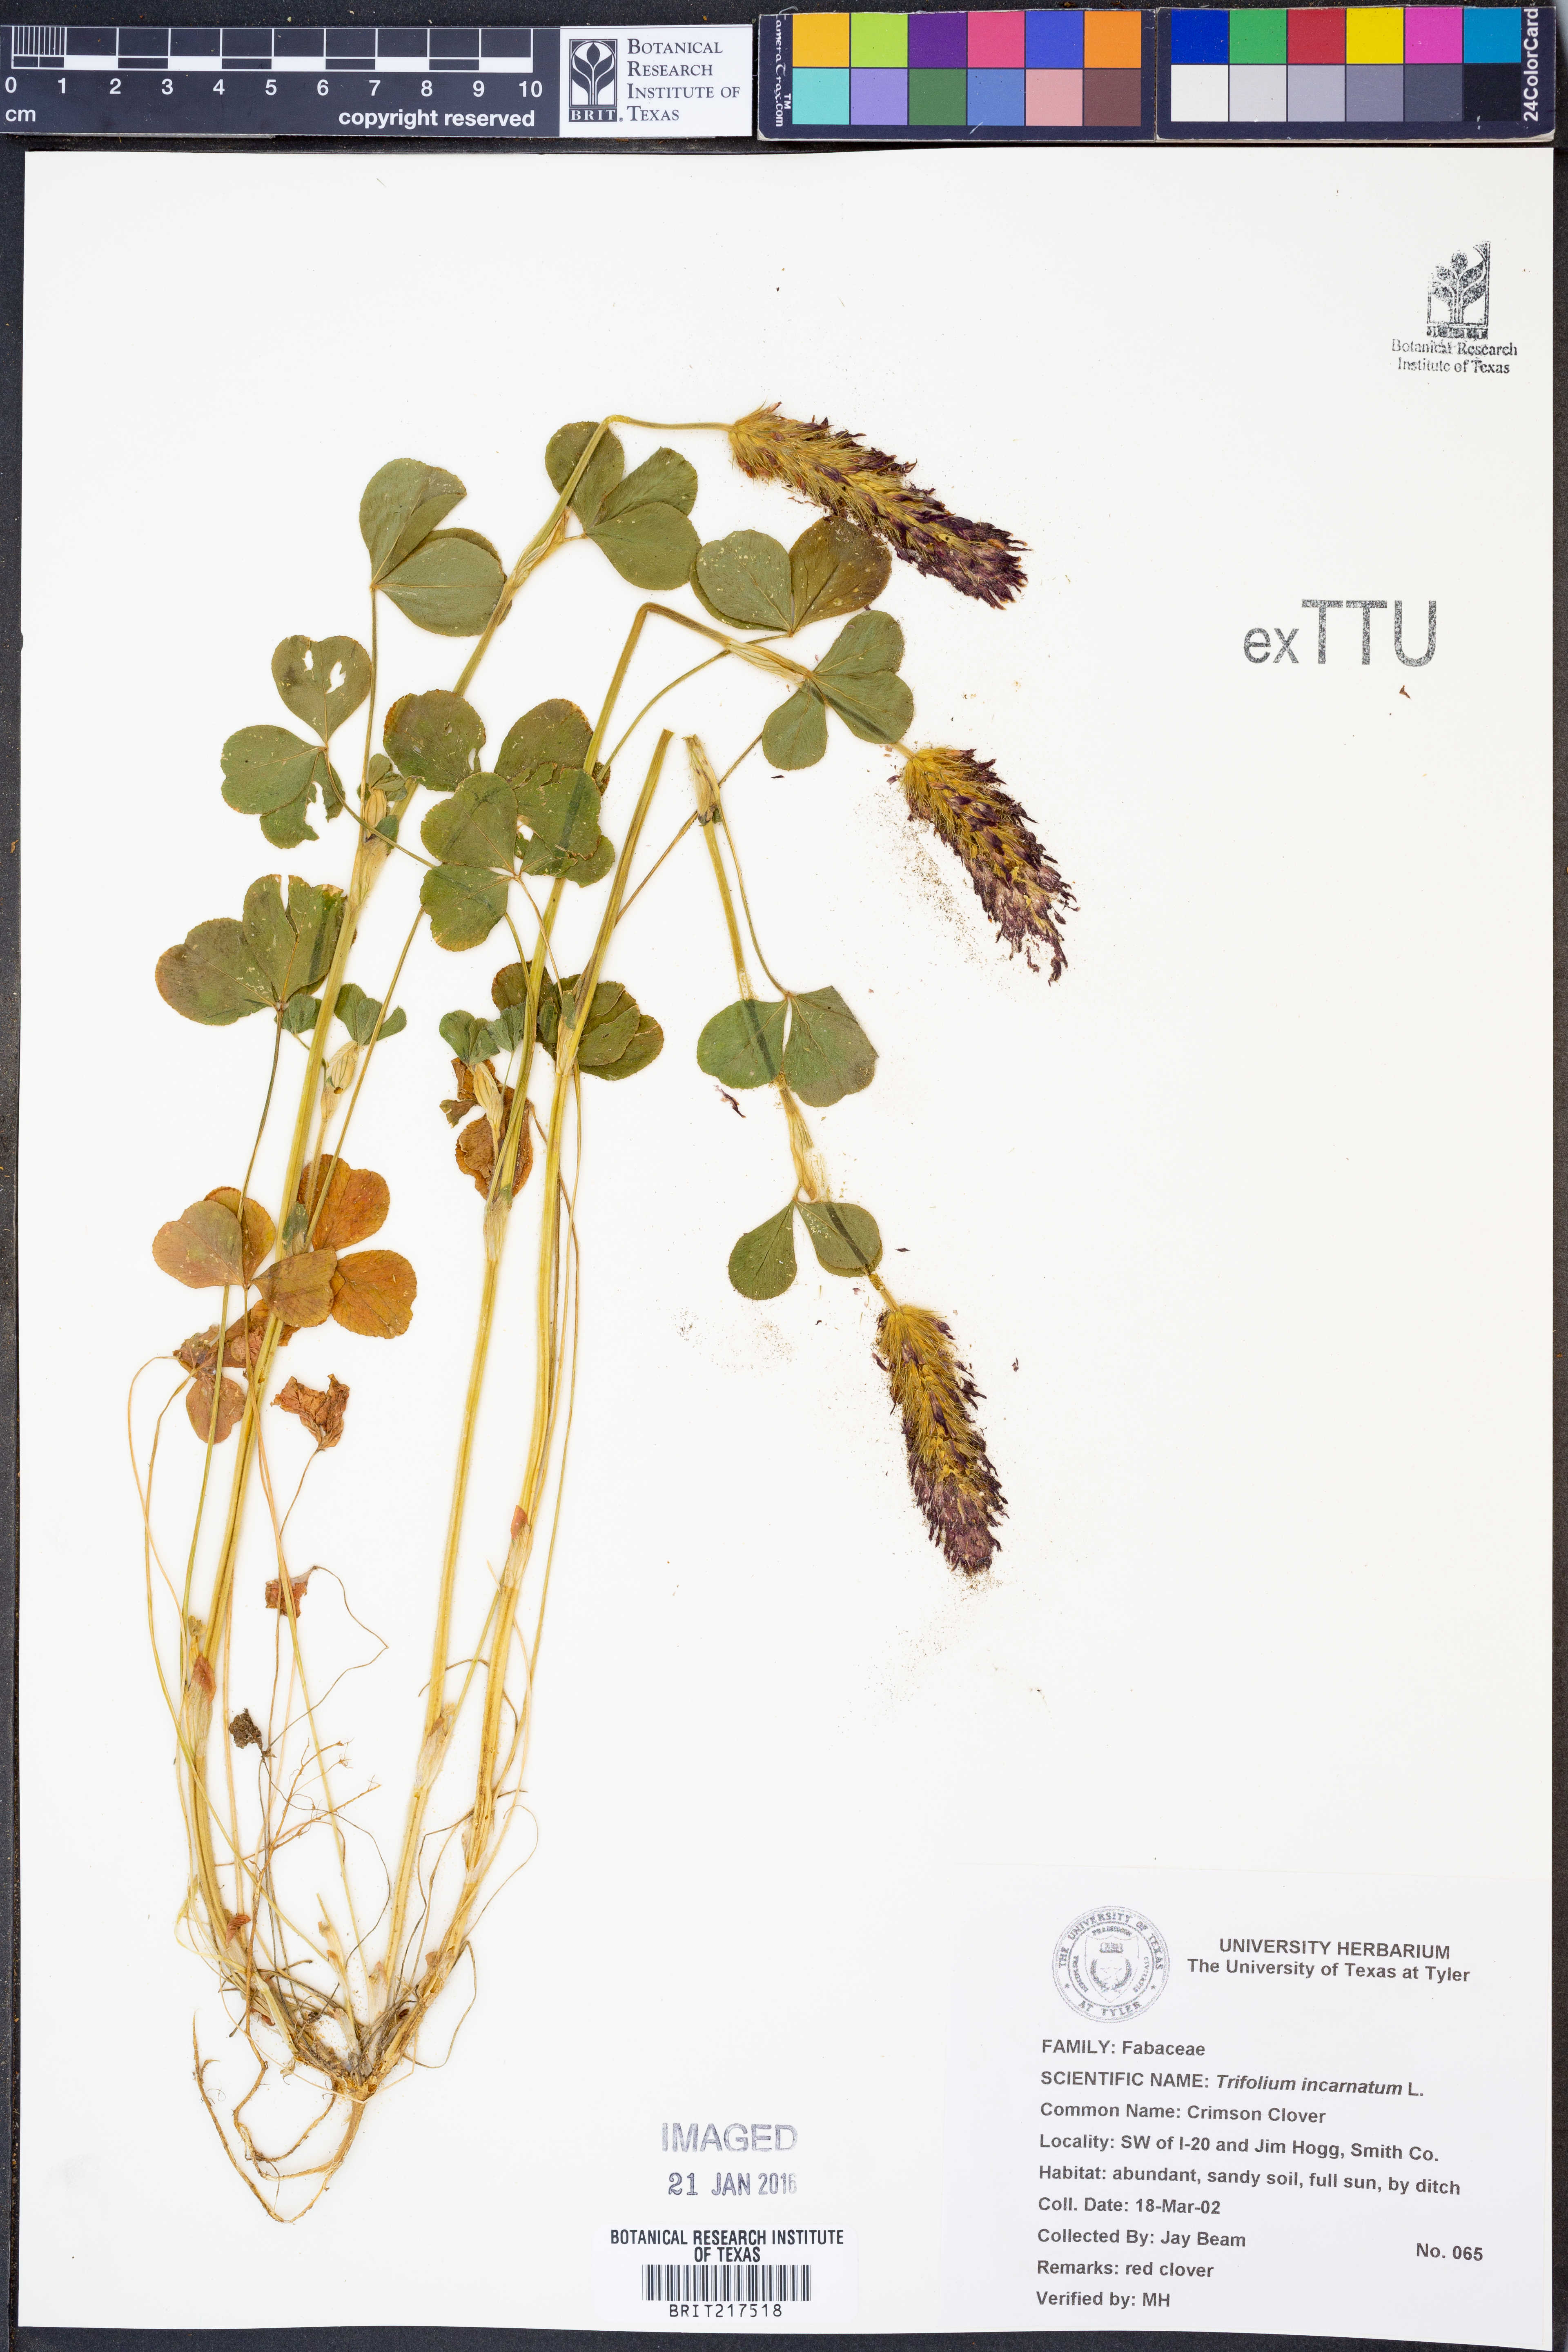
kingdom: Plantae
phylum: Tracheophyta
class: Magnoliopsida
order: Fabales
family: Fabaceae
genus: Trifolium
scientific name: Trifolium incarnatum
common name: Crimson clover
